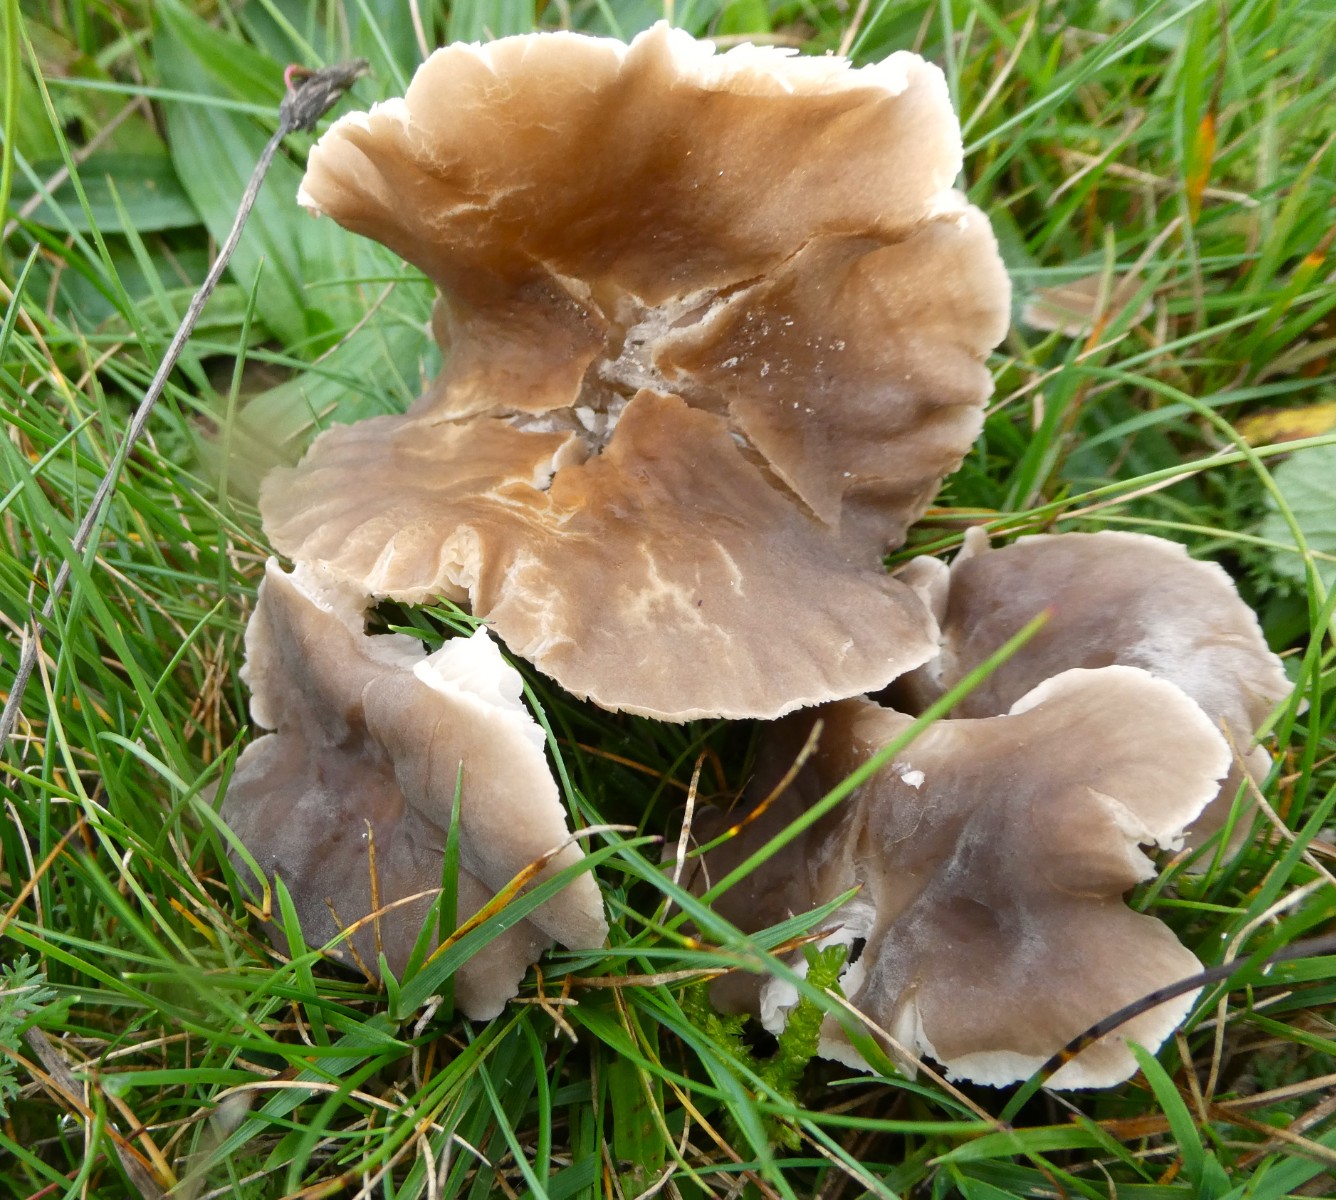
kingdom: Fungi
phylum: Basidiomycota
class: Agaricomycetes
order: Agaricales
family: Tricholomataceae
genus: Dermoloma
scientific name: Dermoloma cuneifolium
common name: eng-nonnehat
